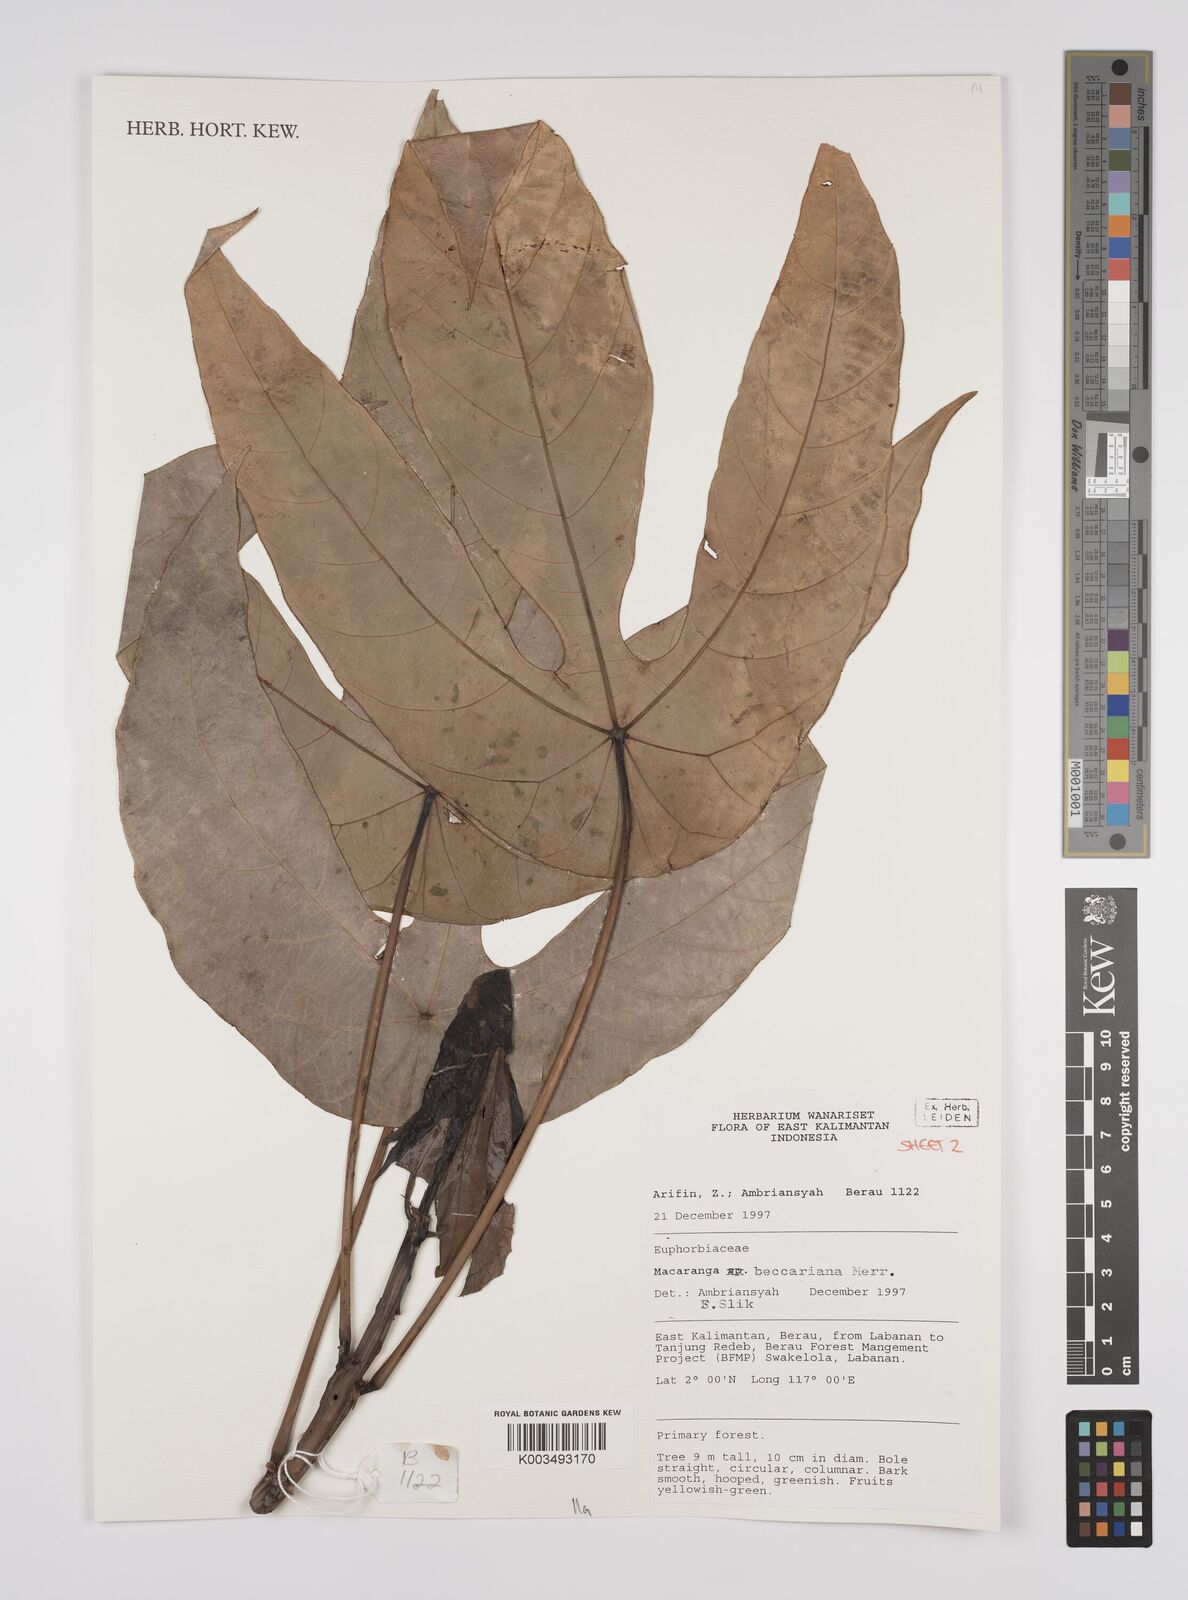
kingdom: Plantae
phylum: Tracheophyta
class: Magnoliopsida
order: Malpighiales
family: Euphorbiaceae
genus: Macaranga
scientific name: Macaranga beccariana
